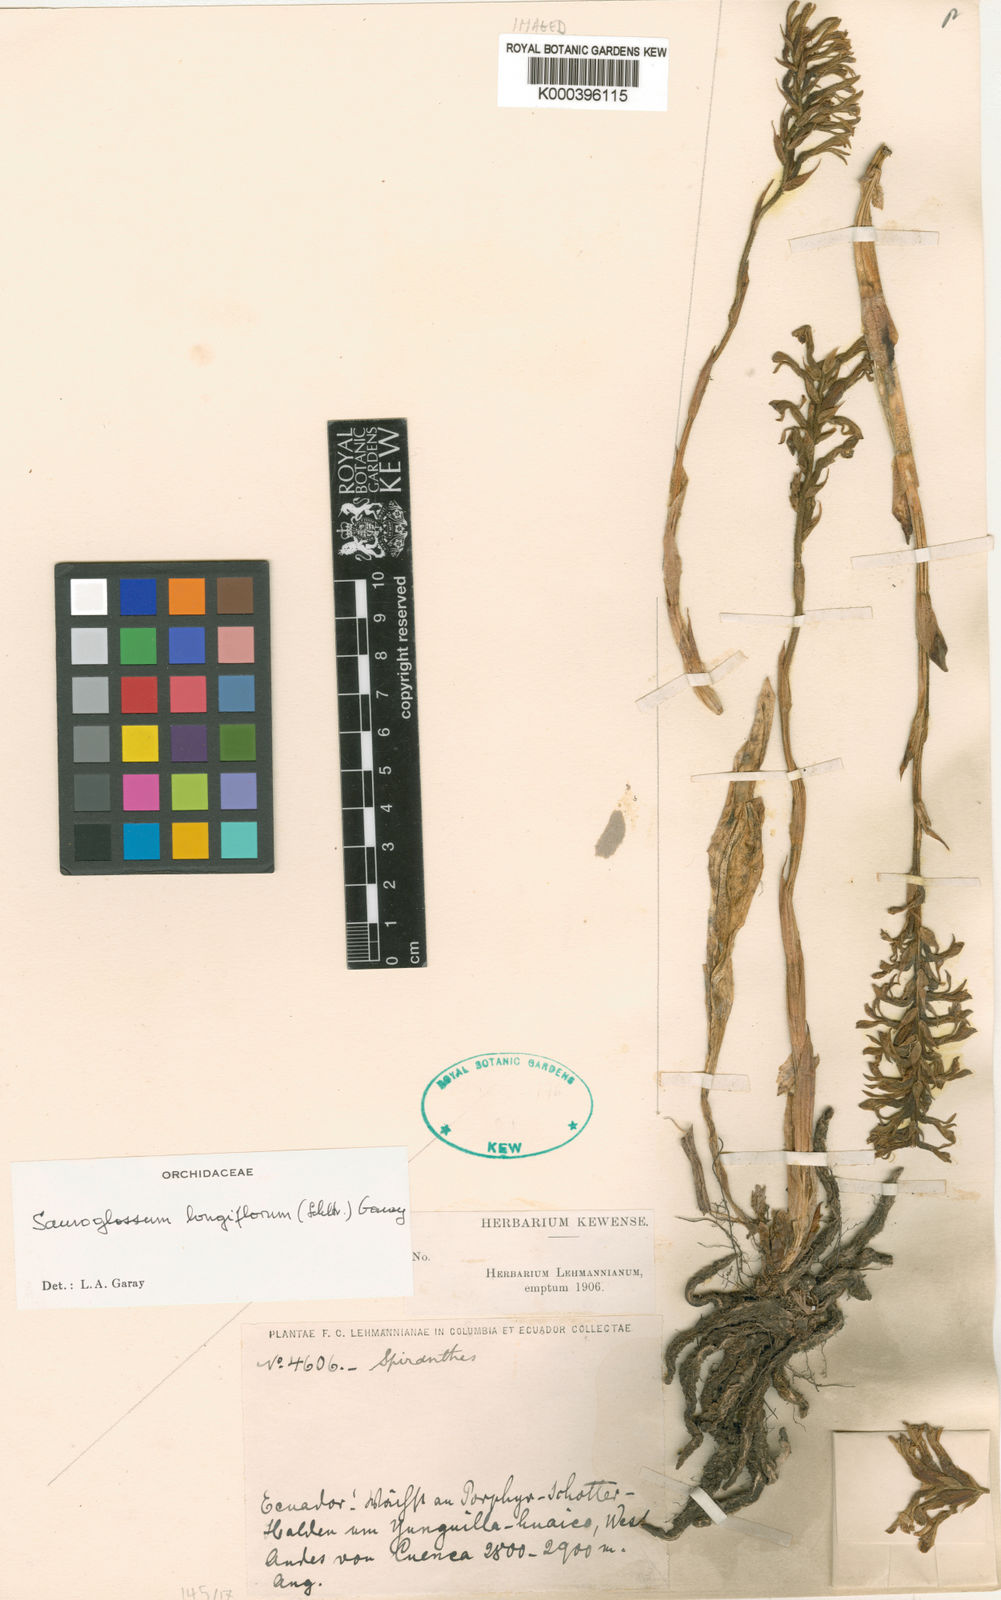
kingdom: Plantae
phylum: Tracheophyta
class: Liliopsida
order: Asparagales
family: Orchidaceae
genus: Sauroglossum
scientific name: Sauroglossum longiflorum
